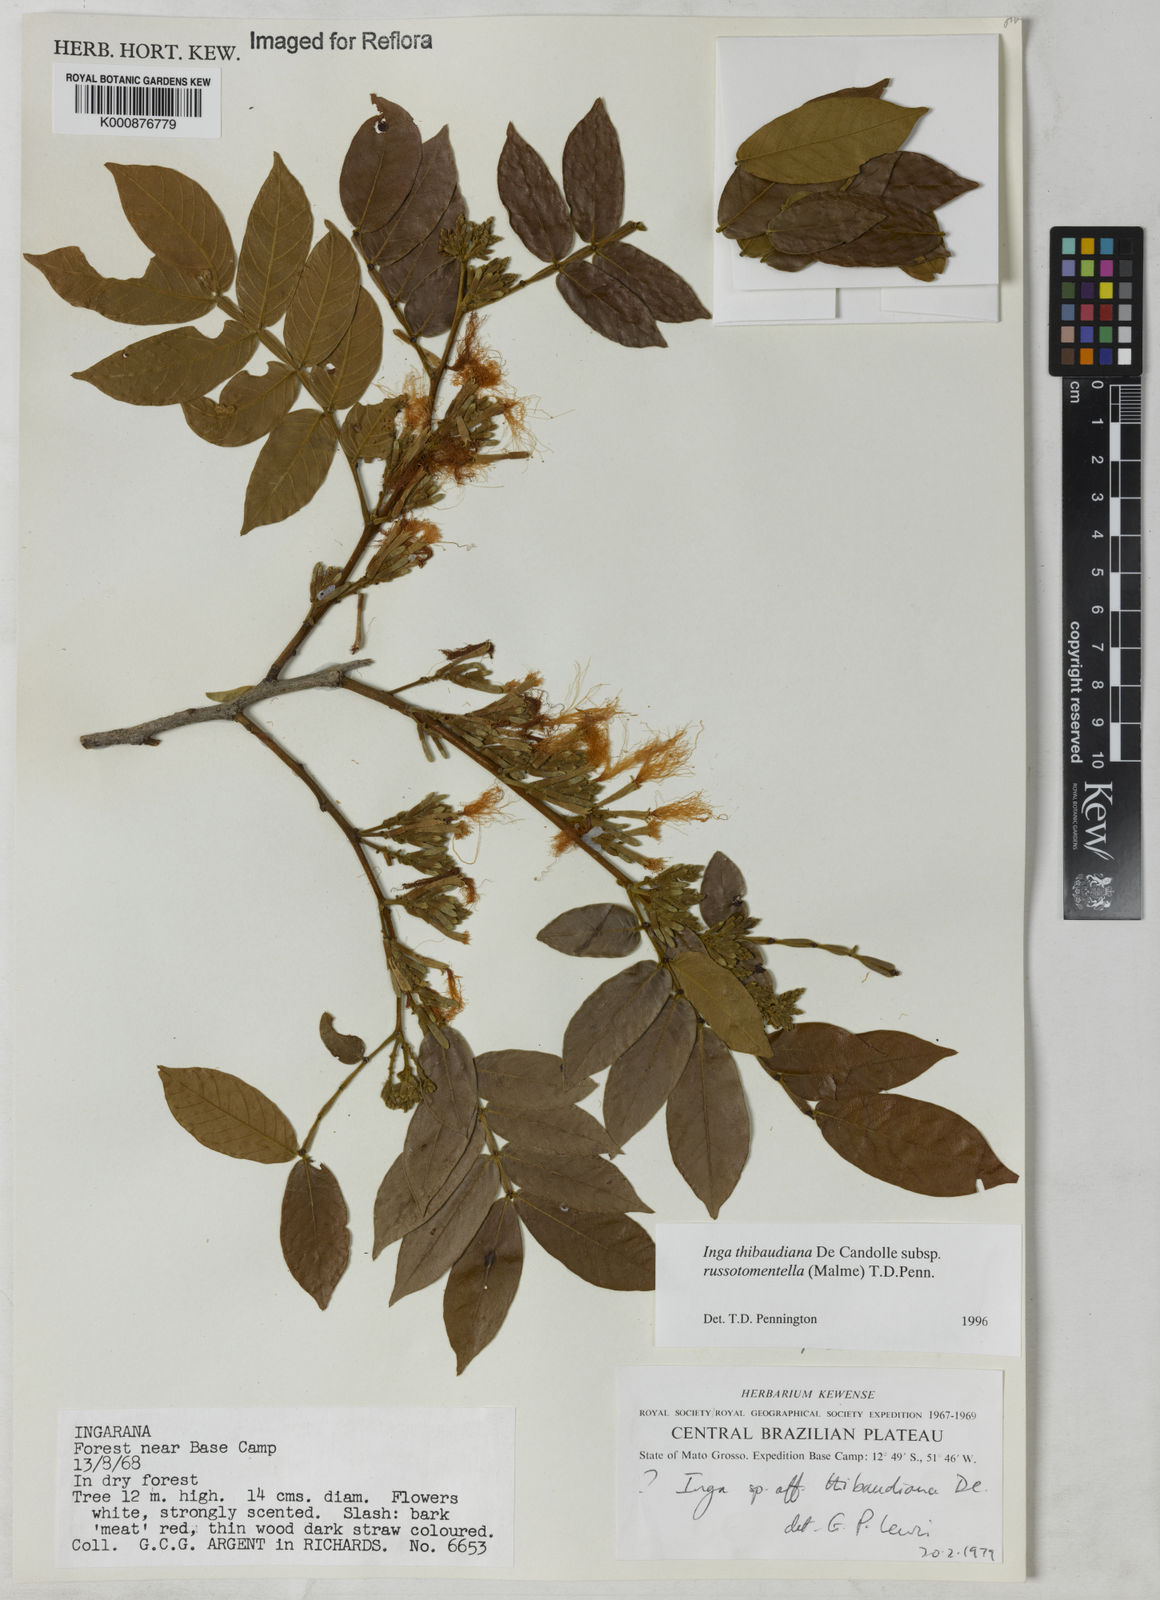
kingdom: Plantae
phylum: Tracheophyta
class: Magnoliopsida
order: Fabales
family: Fabaceae
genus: Inga
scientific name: Inga thibaudiana
